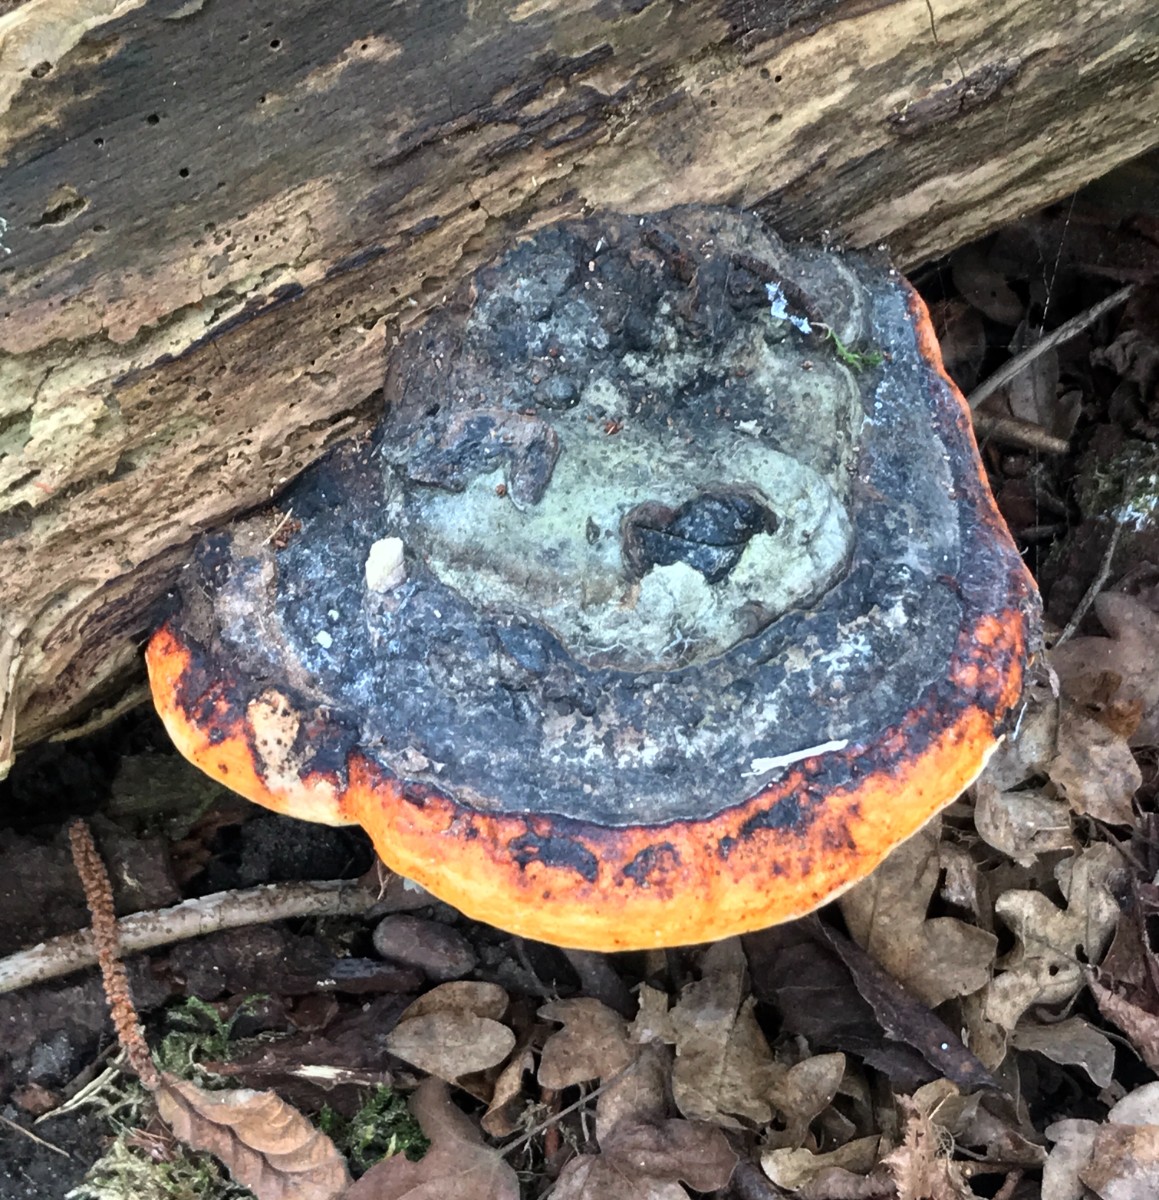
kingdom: Fungi
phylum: Basidiomycota
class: Agaricomycetes
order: Polyporales
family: Fomitopsidaceae
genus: Fomitopsis
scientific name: Fomitopsis pinicola
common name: randbæltet hovporesvamp
